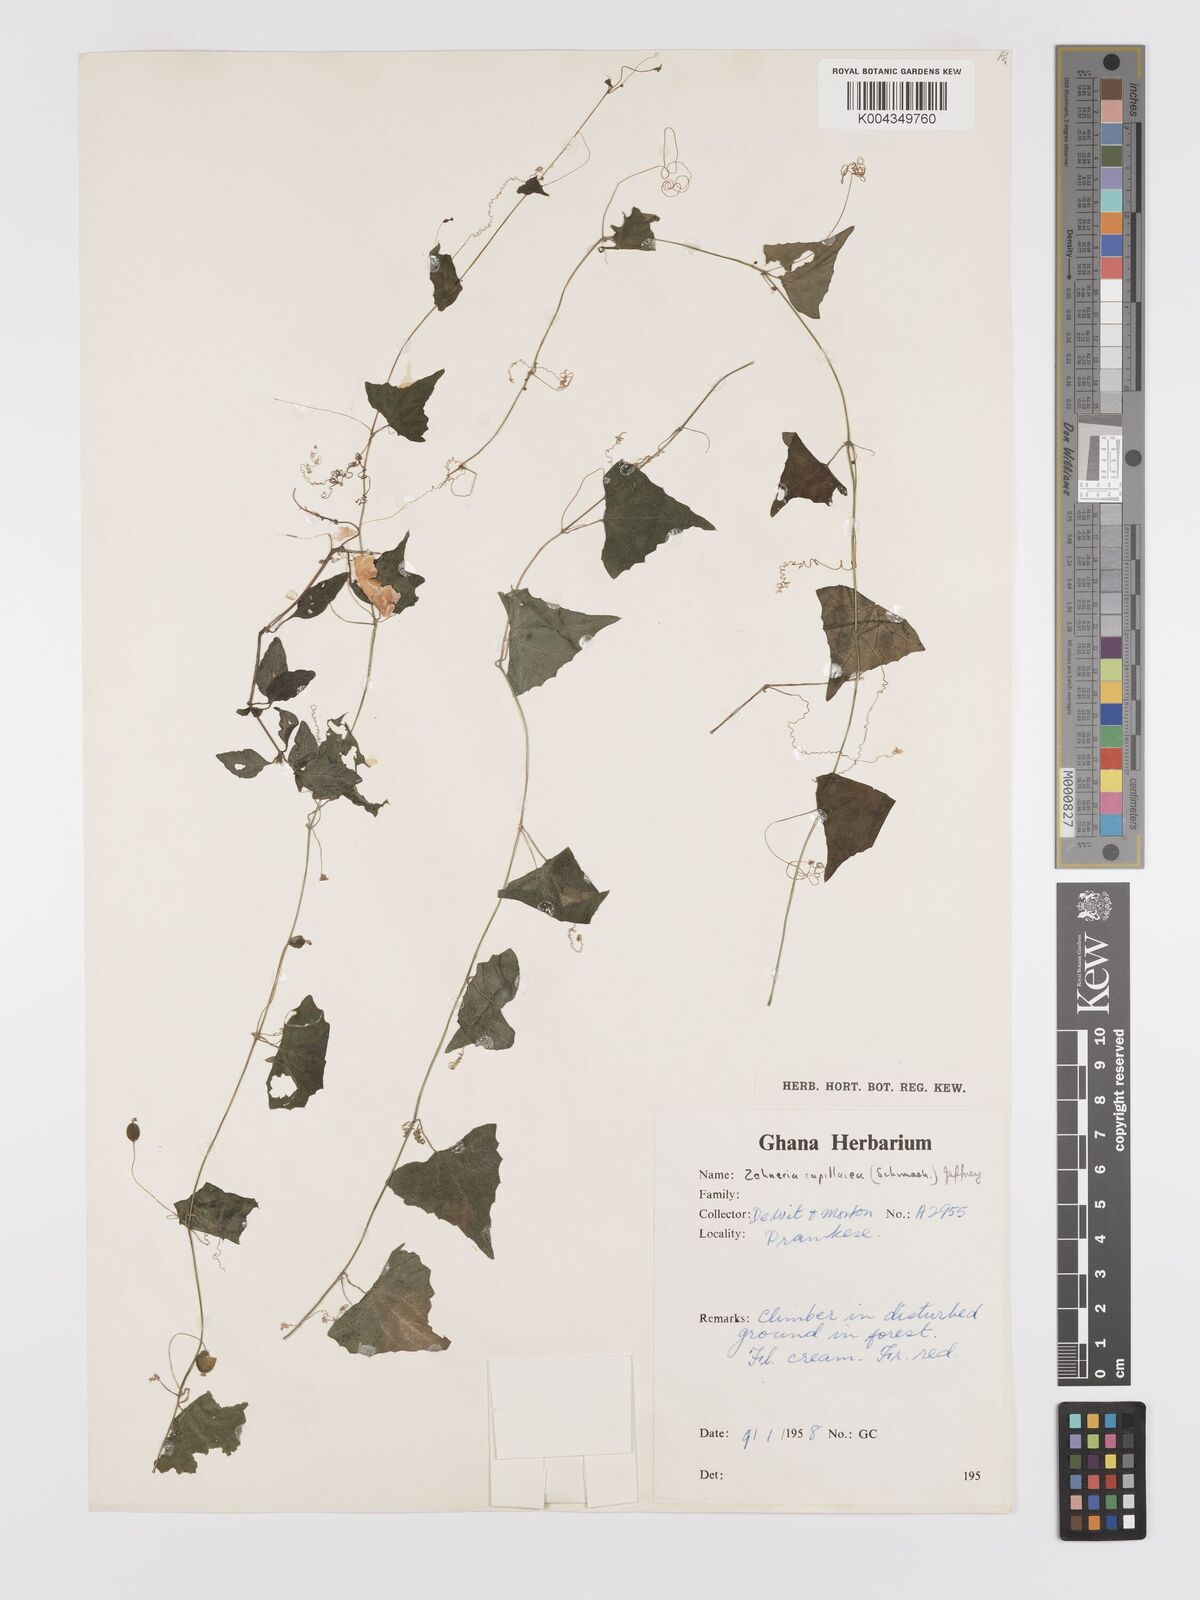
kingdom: Plantae
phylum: Tracheophyta
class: Magnoliopsida
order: Cucurbitales
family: Cucurbitaceae
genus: Zehneria
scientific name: Zehneria capillacea
